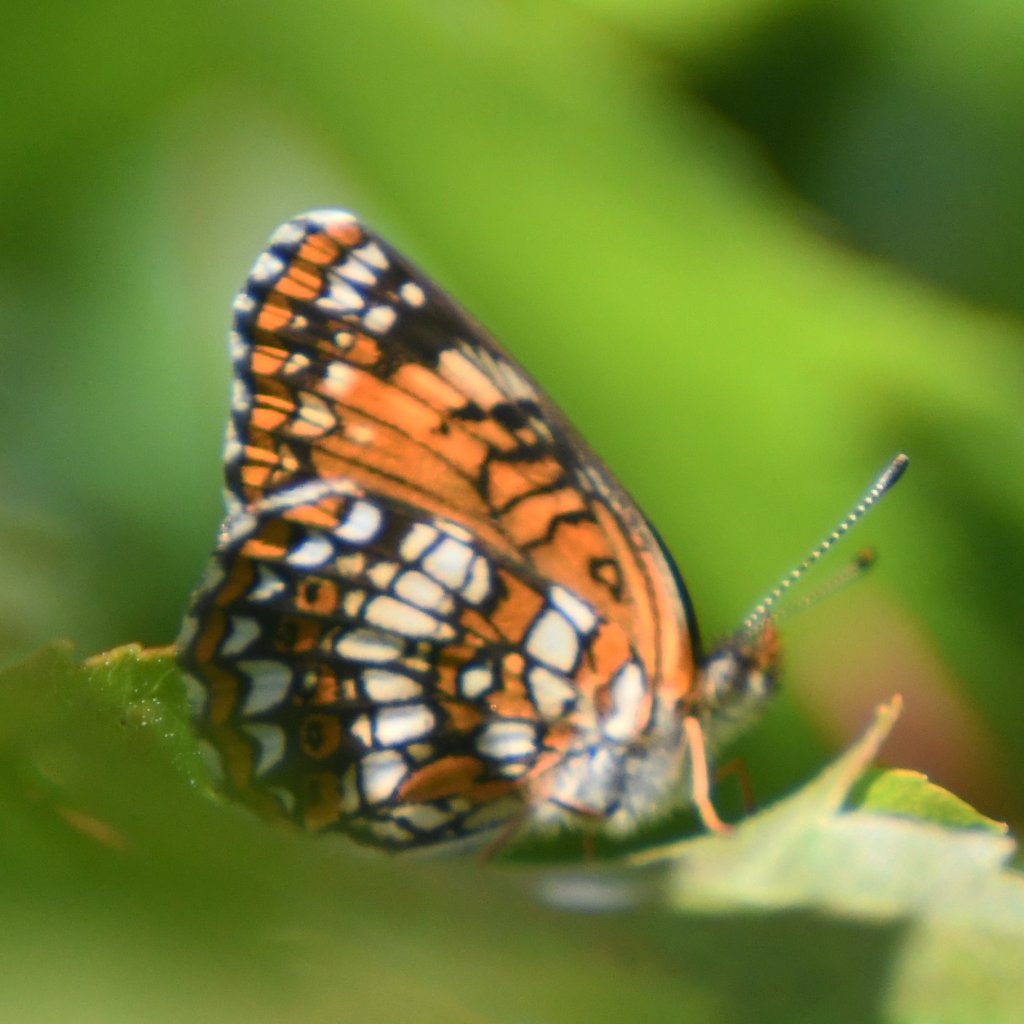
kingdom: Animalia
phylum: Arthropoda
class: Insecta
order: Lepidoptera
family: Nymphalidae
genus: Chlosyne
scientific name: Chlosyne harrisii
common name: Harris's Checkerspot
